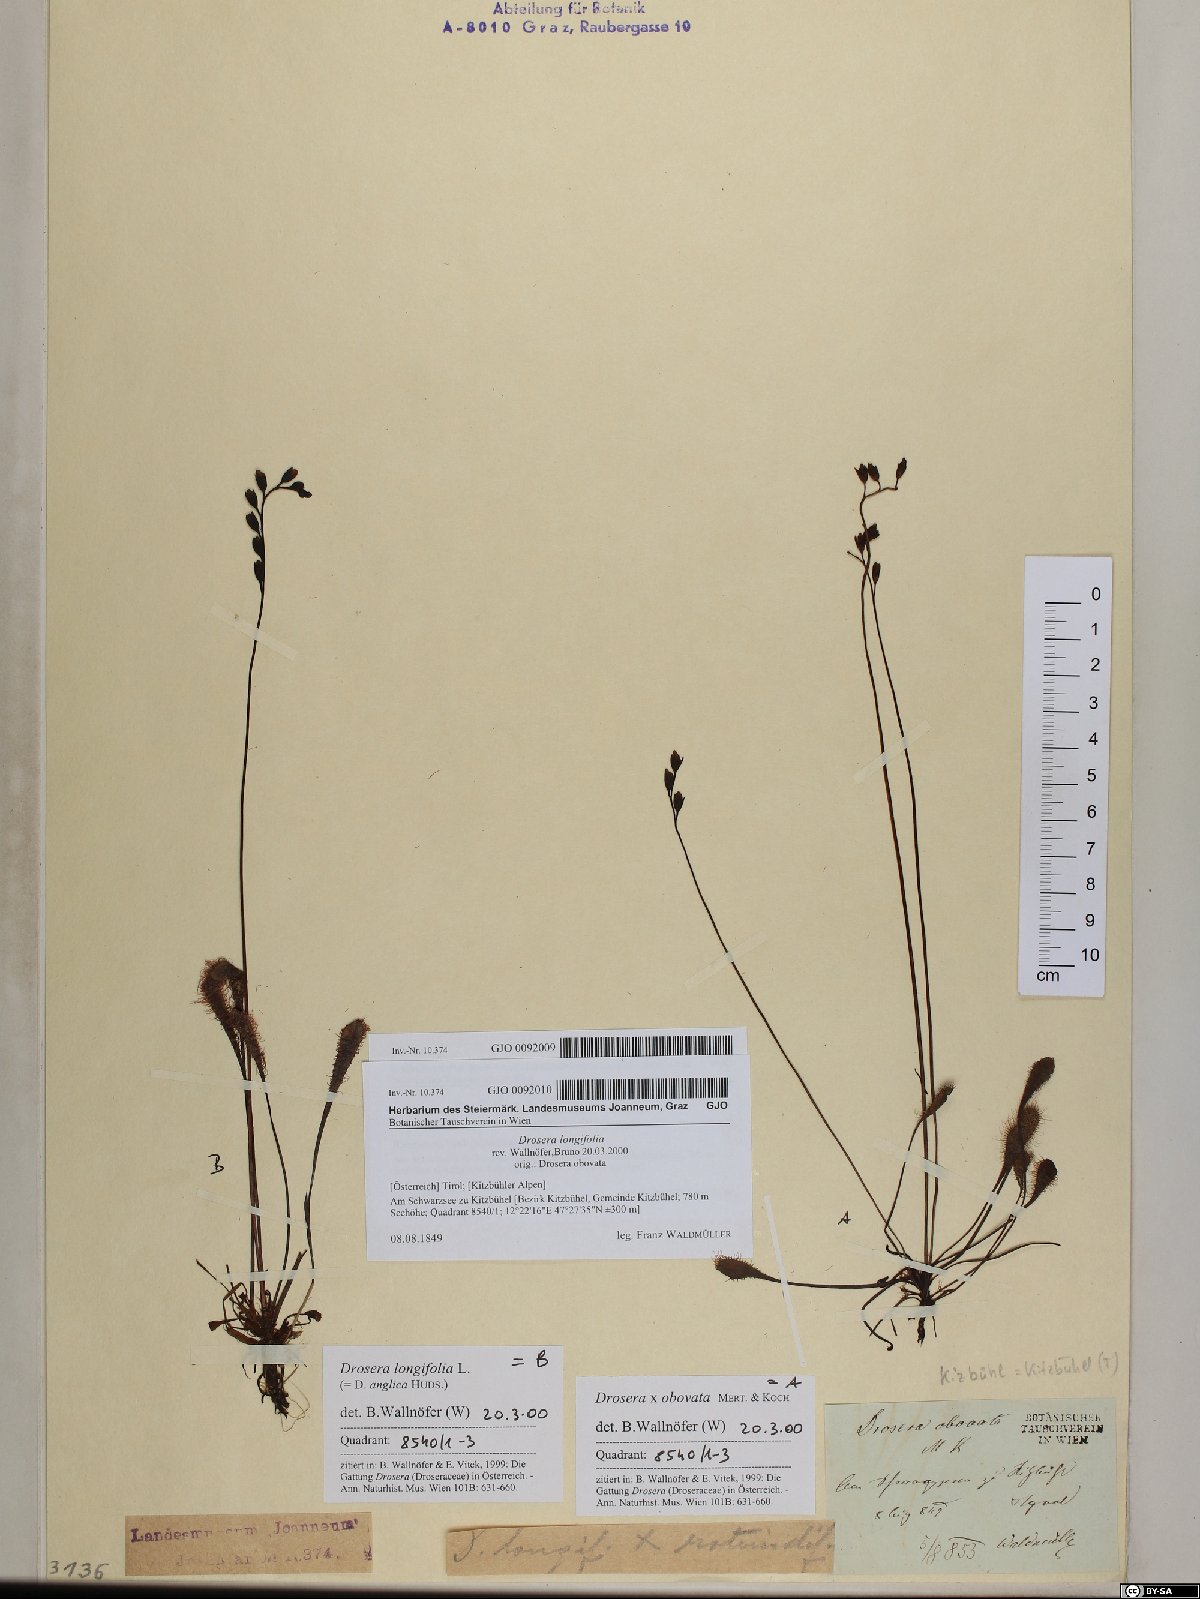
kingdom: Plantae
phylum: Tracheophyta
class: Magnoliopsida
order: Caryophyllales
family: Droseraceae
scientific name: Droseraceae
